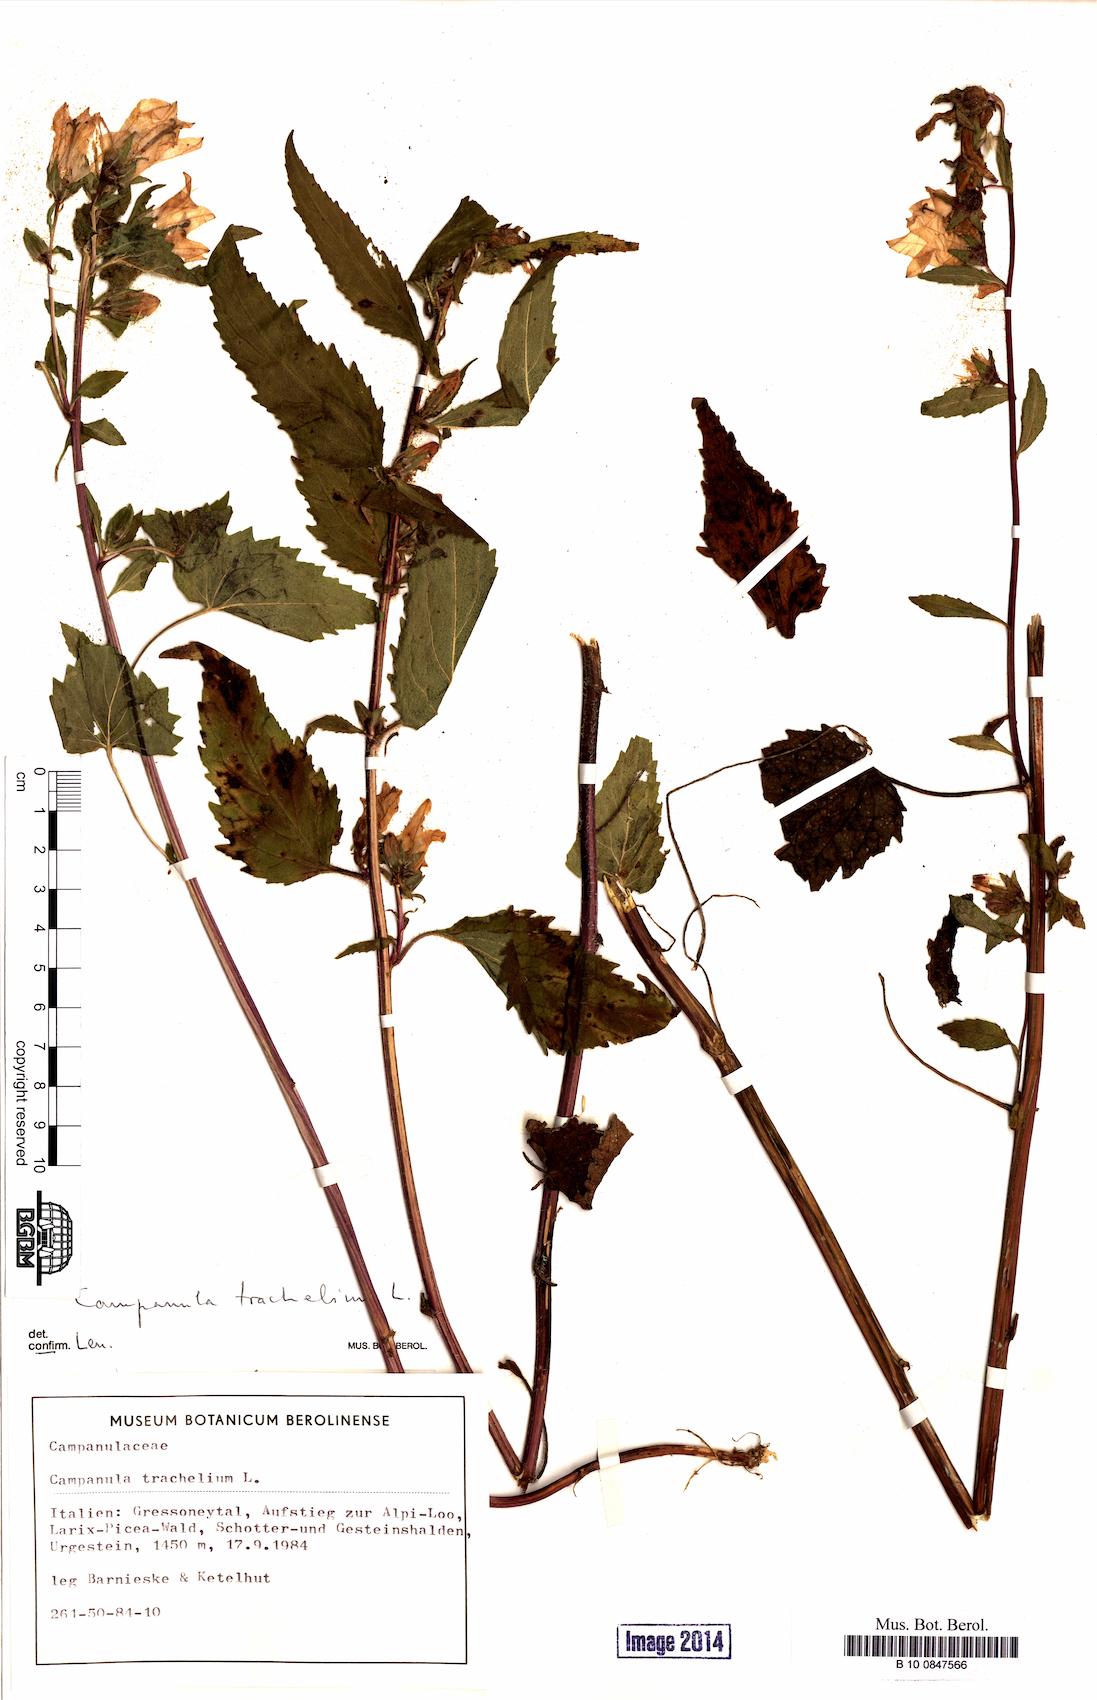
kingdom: Plantae
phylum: Tracheophyta
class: Magnoliopsida
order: Asterales
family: Campanulaceae
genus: Campanula
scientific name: Campanula trachelium
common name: Nettle-leaved bellflower
